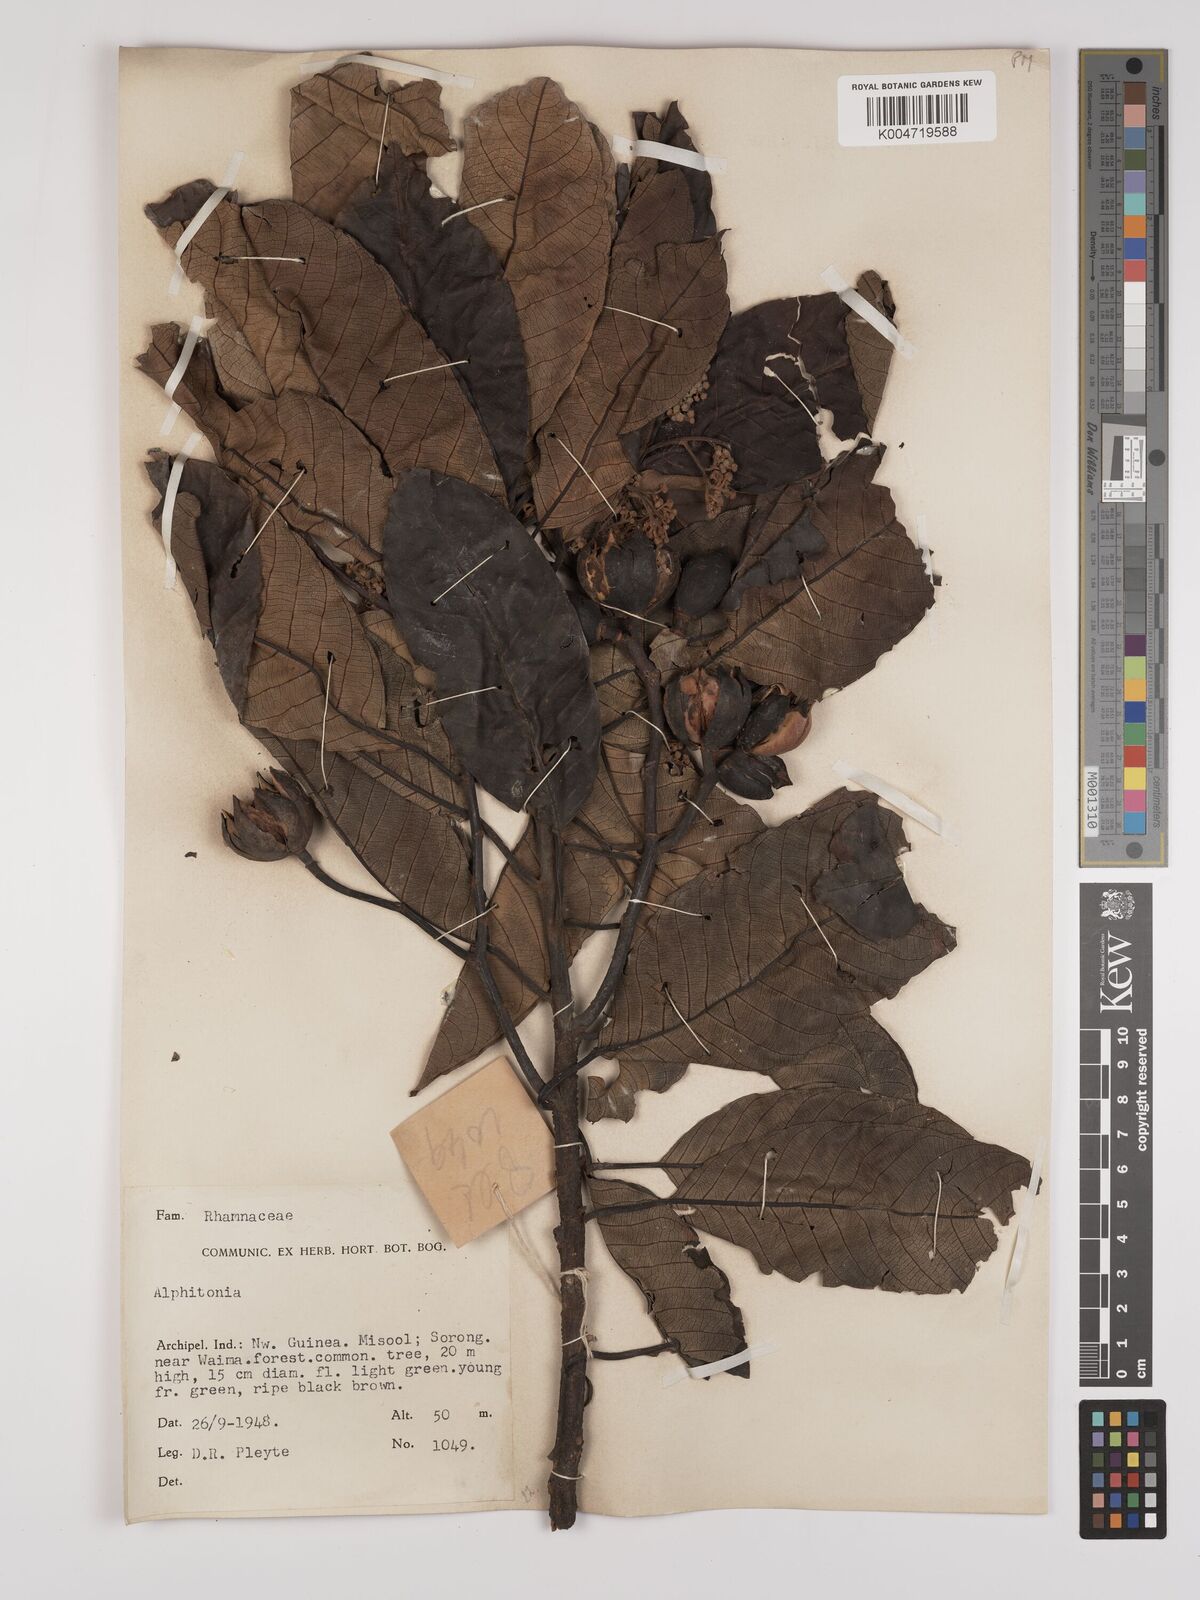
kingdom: Plantae
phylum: Tracheophyta
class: Magnoliopsida
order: Rosales
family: Rhamnaceae
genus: Alphitonia
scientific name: Alphitonia macrocarpa
